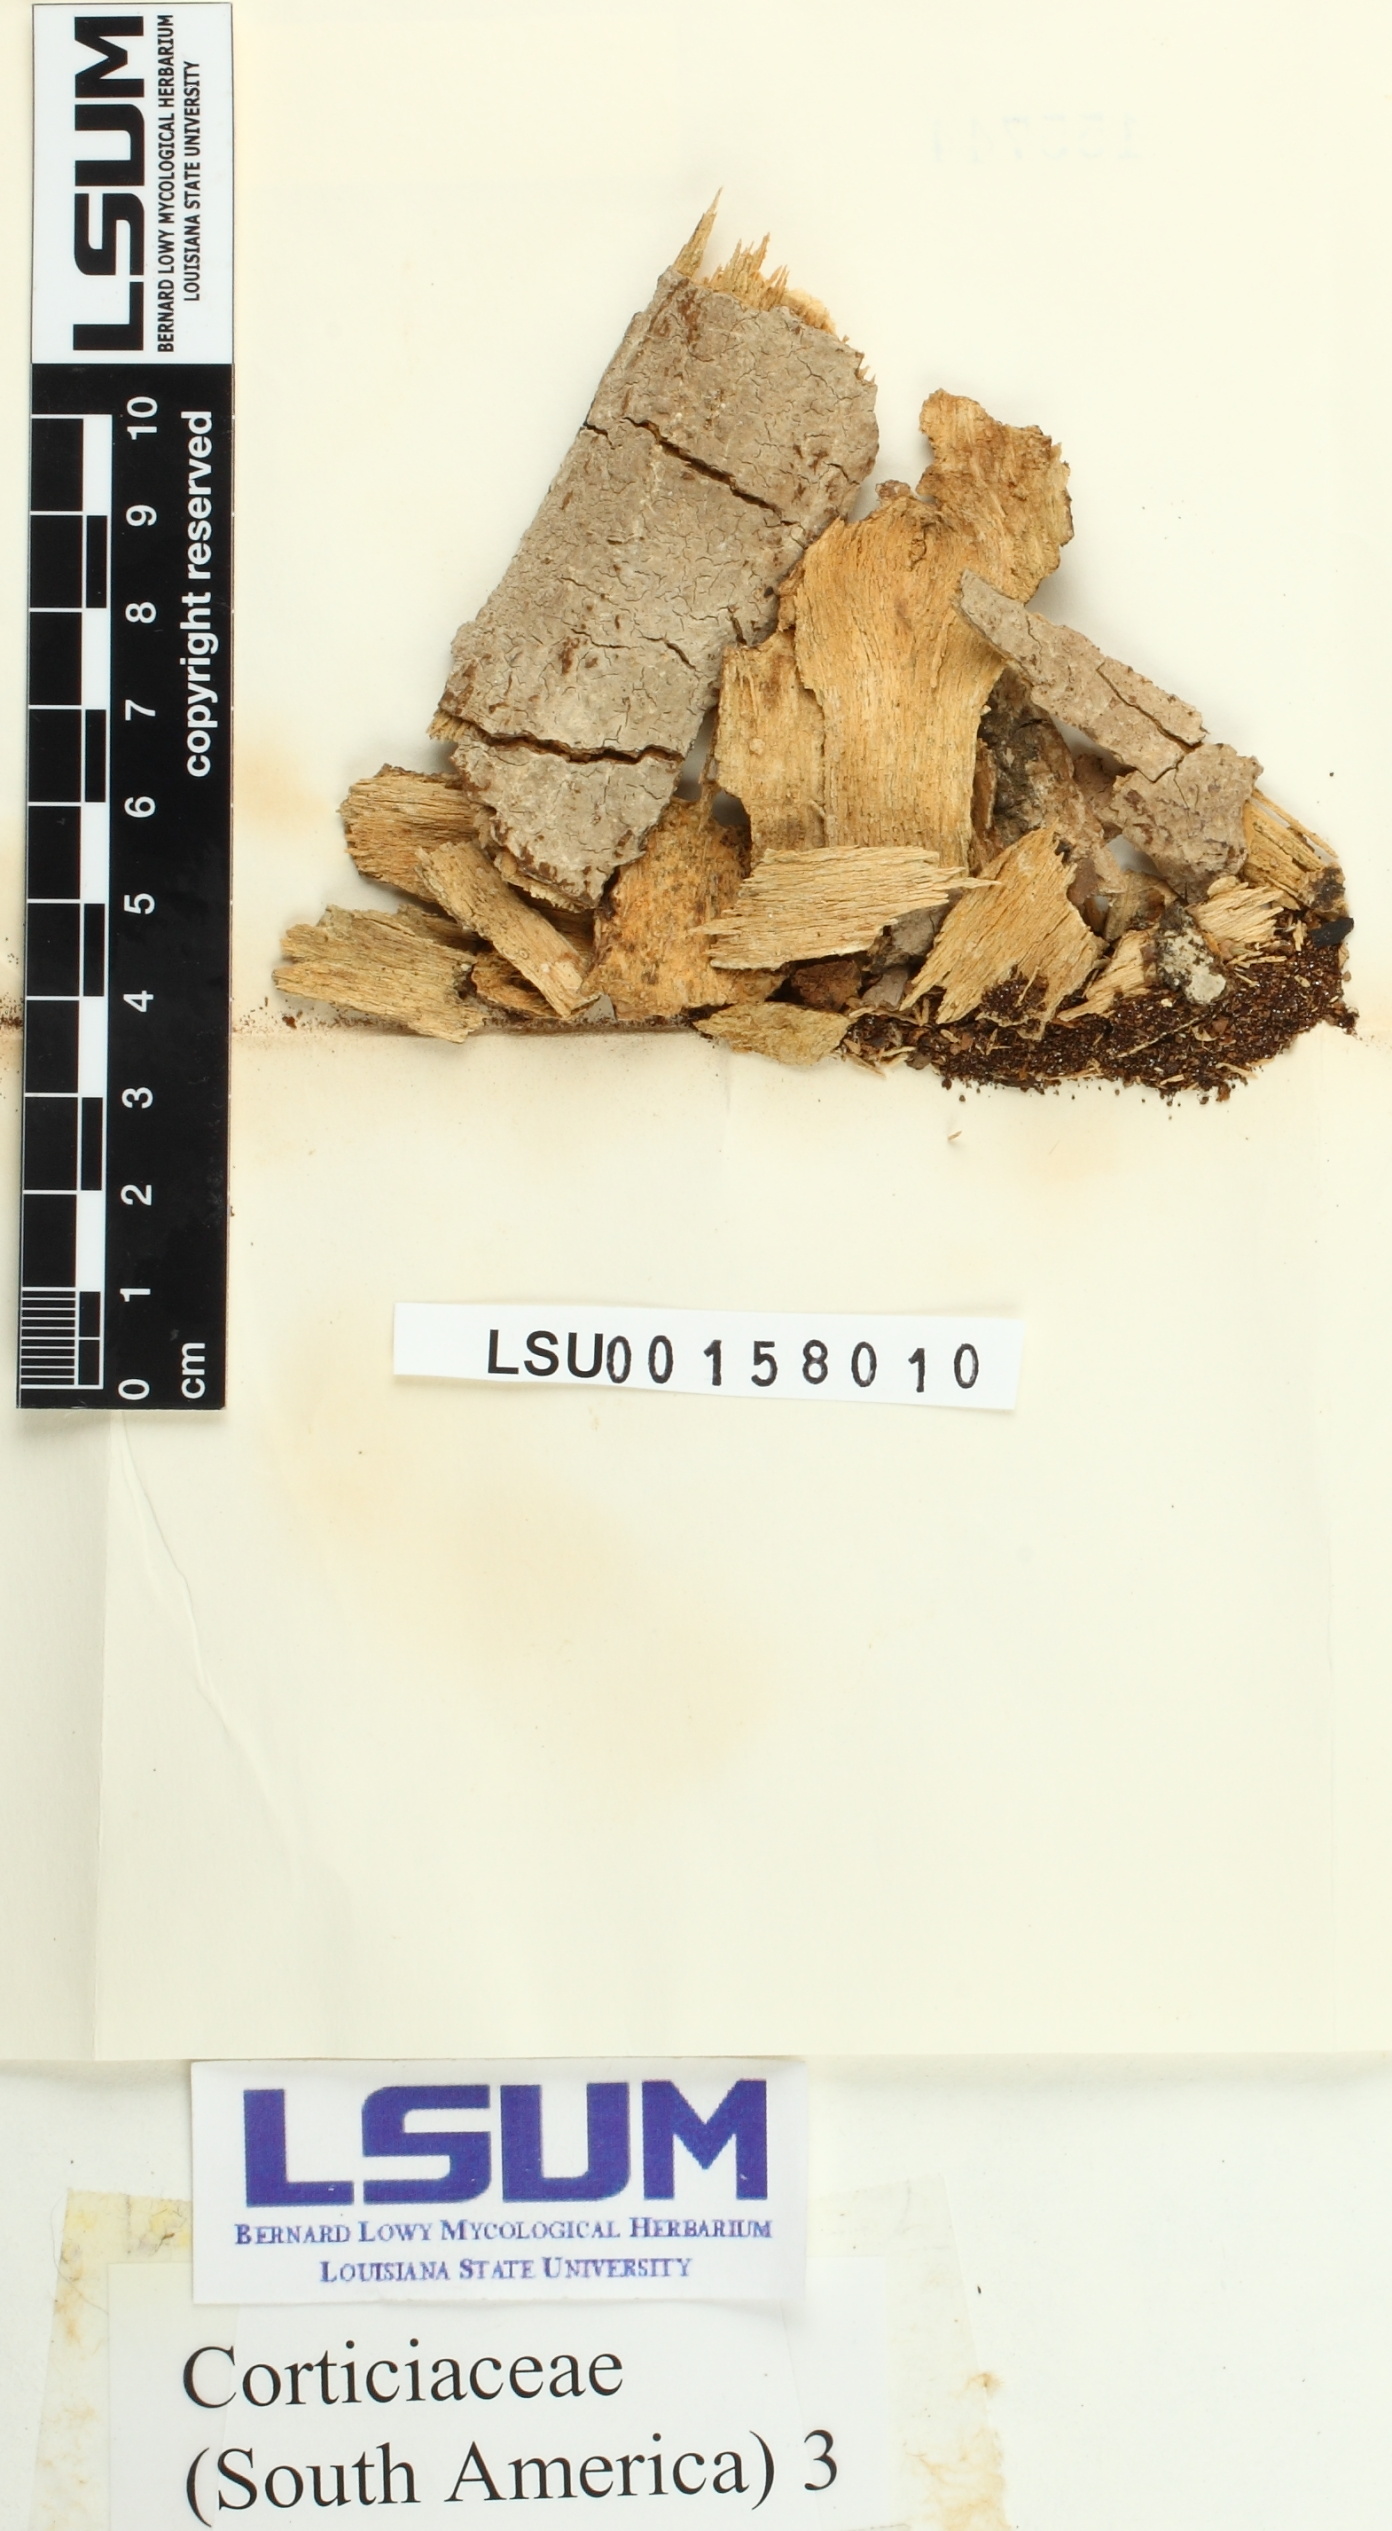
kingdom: Fungi
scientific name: Fungi
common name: Fungi
